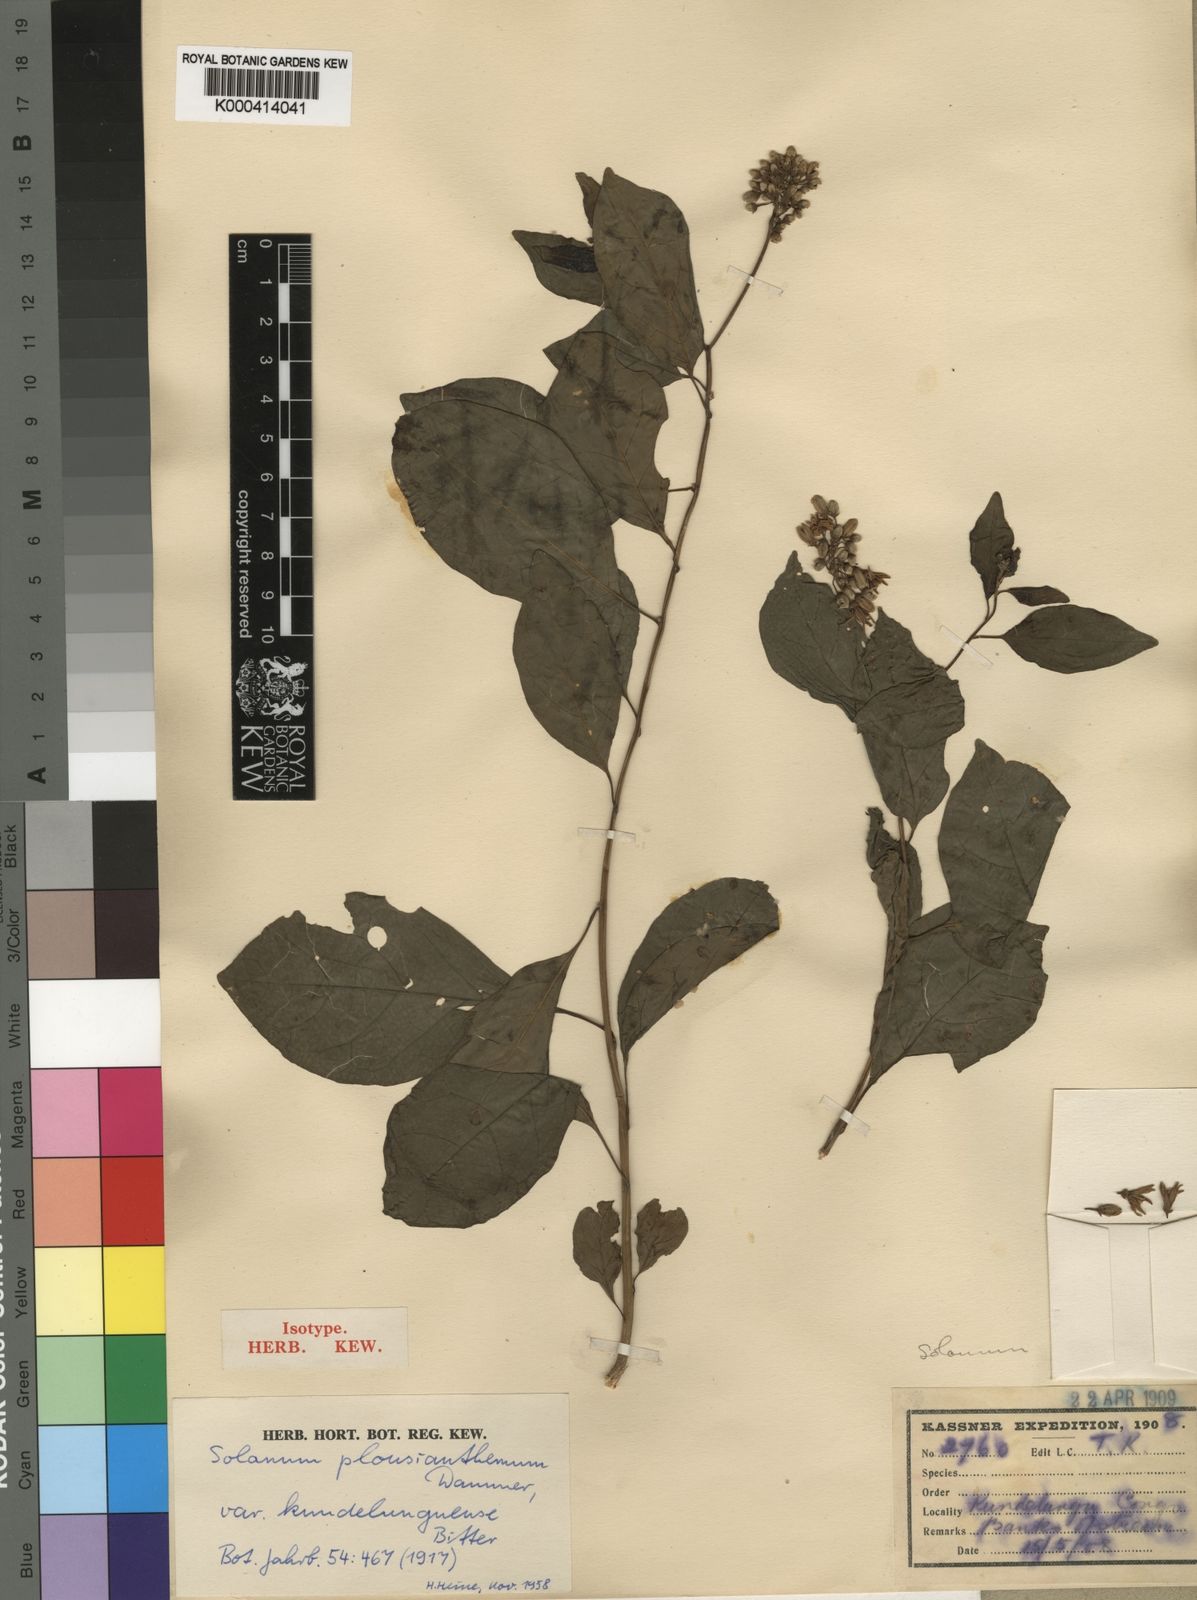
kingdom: Plantae
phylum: Tracheophyta
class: Magnoliopsida
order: Solanales
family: Solanaceae
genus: Solanum
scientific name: Solanum terminale
